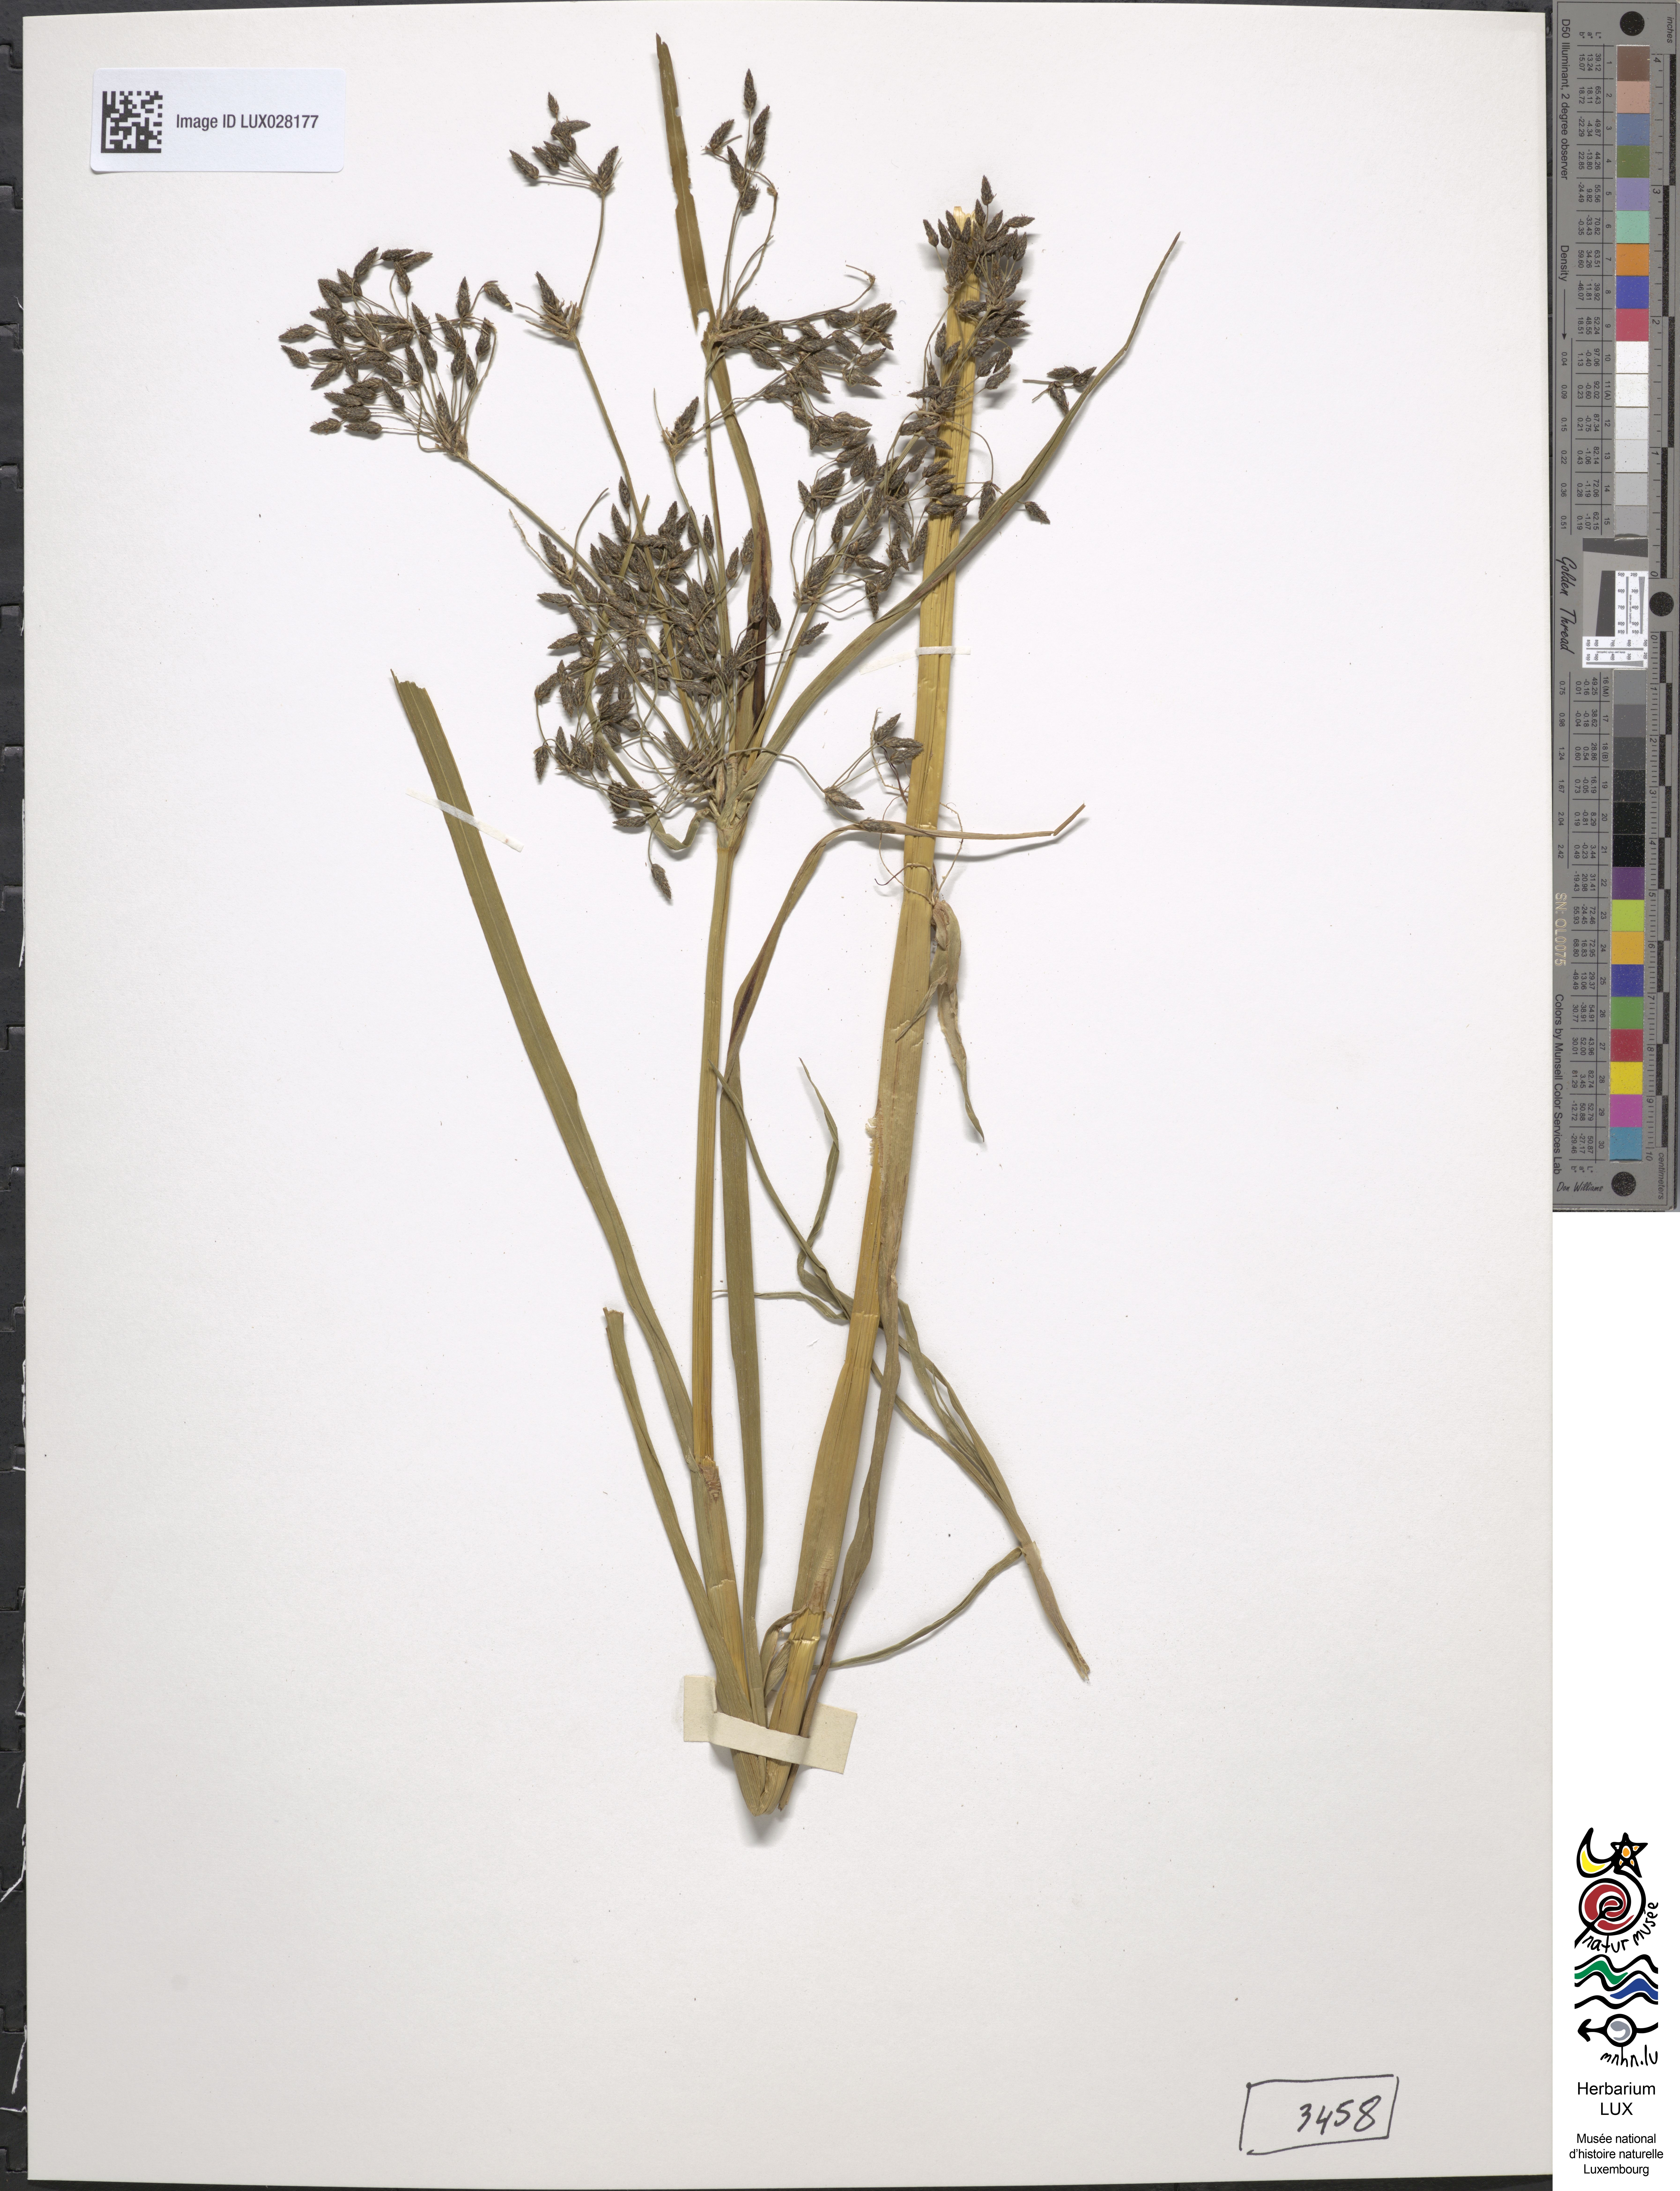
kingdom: Plantae
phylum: Tracheophyta
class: Liliopsida
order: Poales
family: Cyperaceae
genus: Scirpus
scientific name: Scirpus radicans
